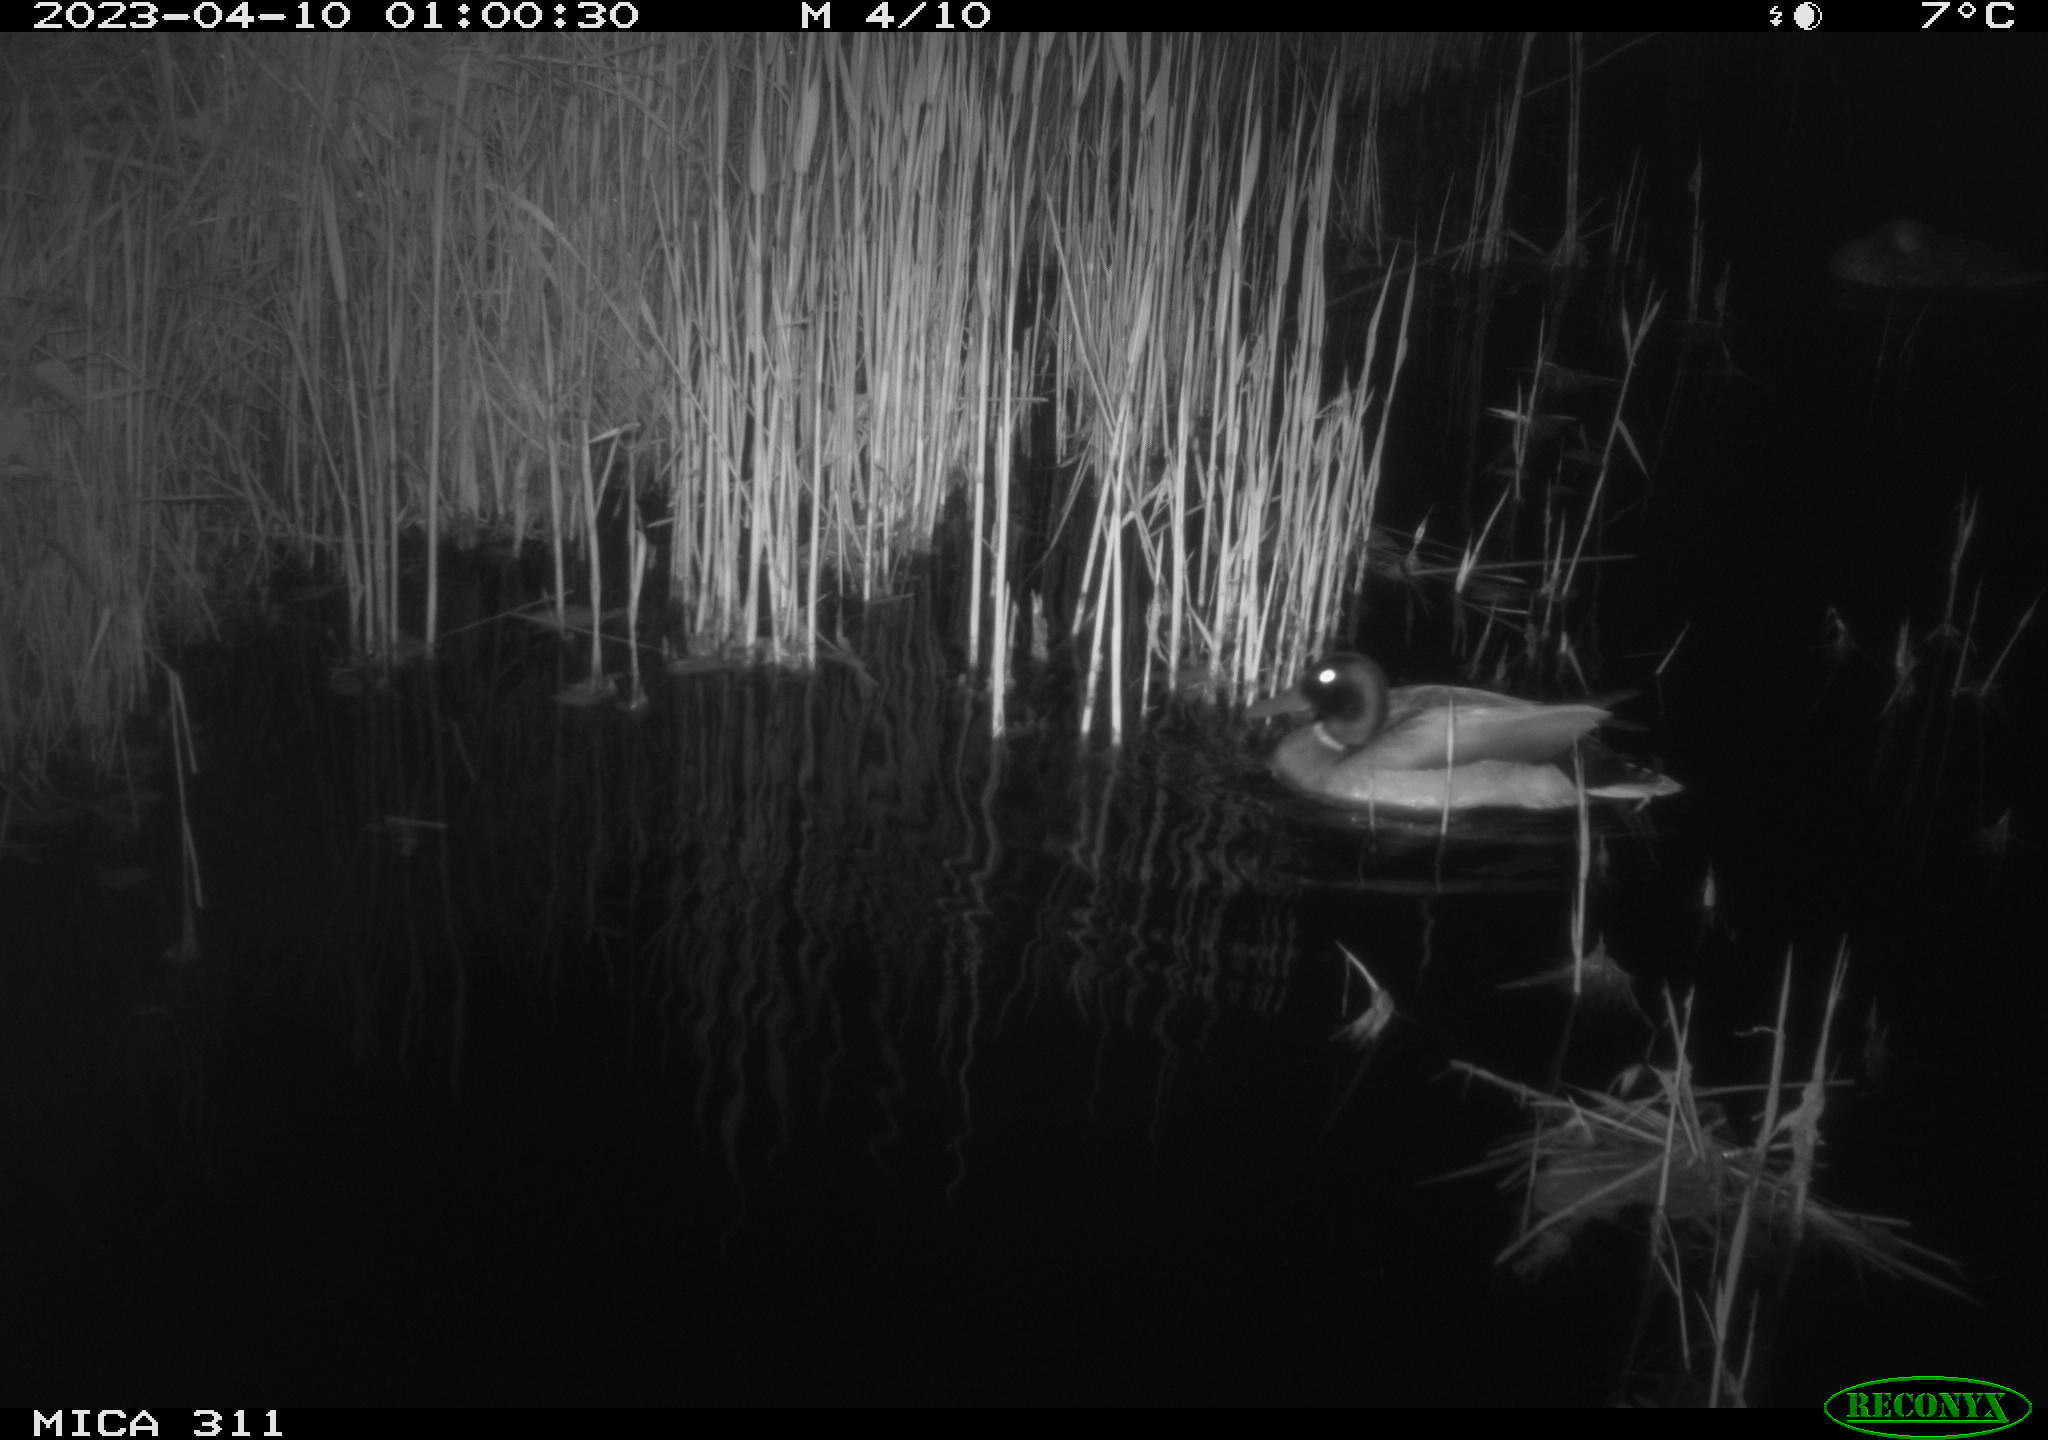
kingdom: Animalia
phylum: Chordata
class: Aves
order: Anseriformes
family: Anatidae
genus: Anas
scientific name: Anas
